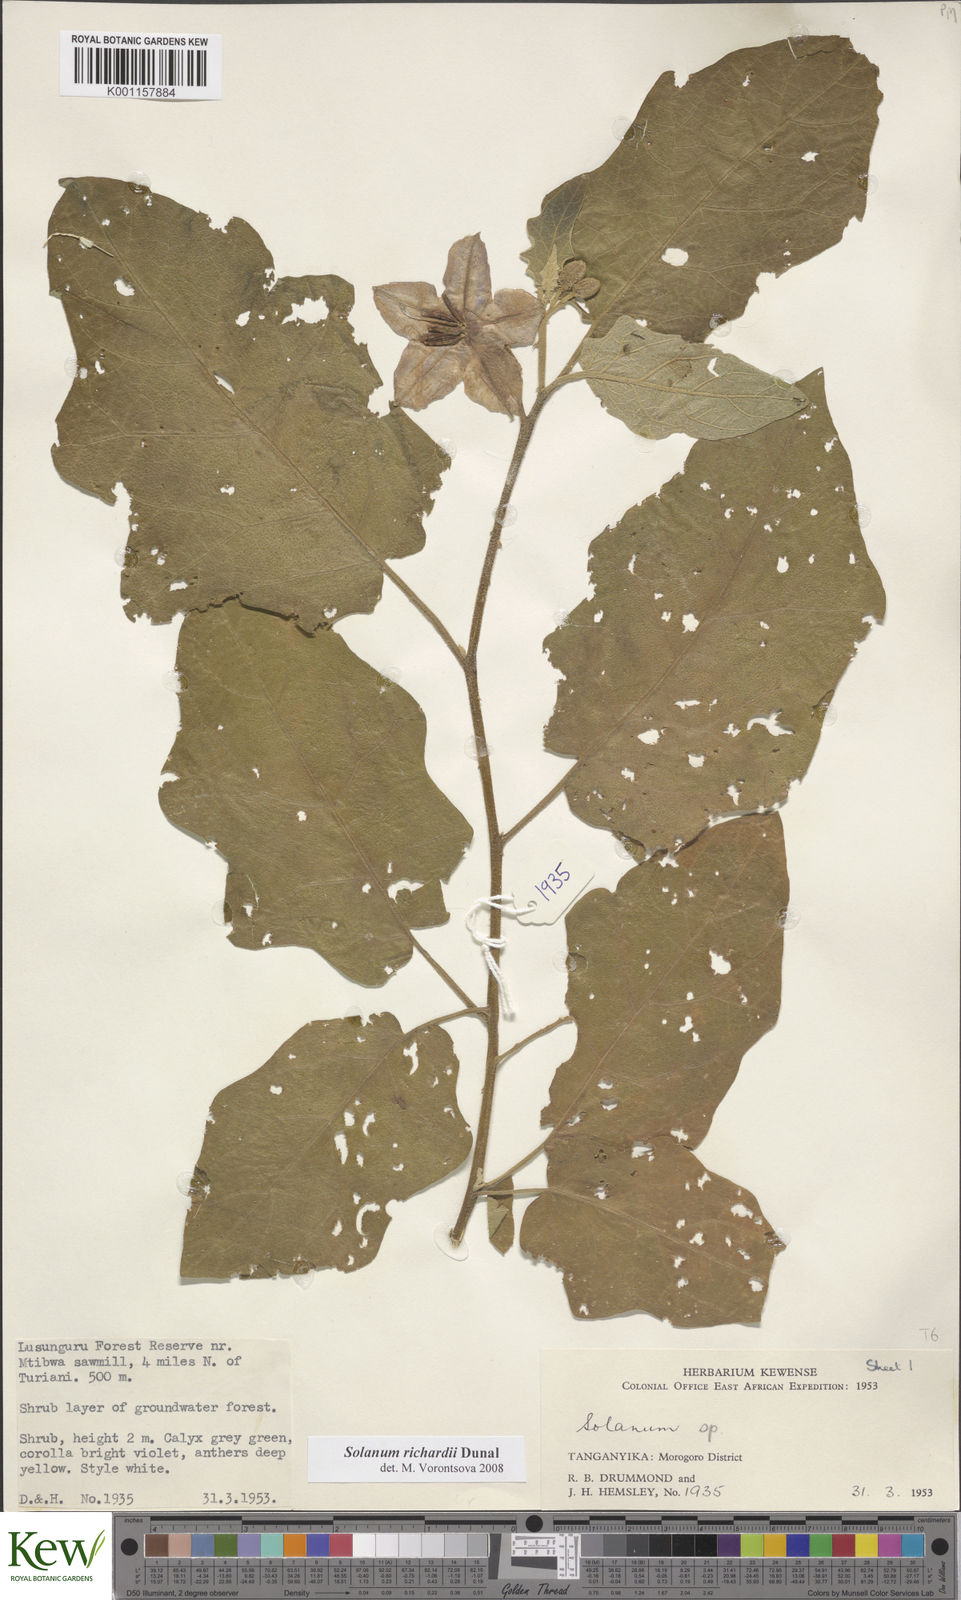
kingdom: Plantae
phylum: Tracheophyta
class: Magnoliopsida
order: Solanales
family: Solanaceae
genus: Solanum
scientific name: Solanum richardii
